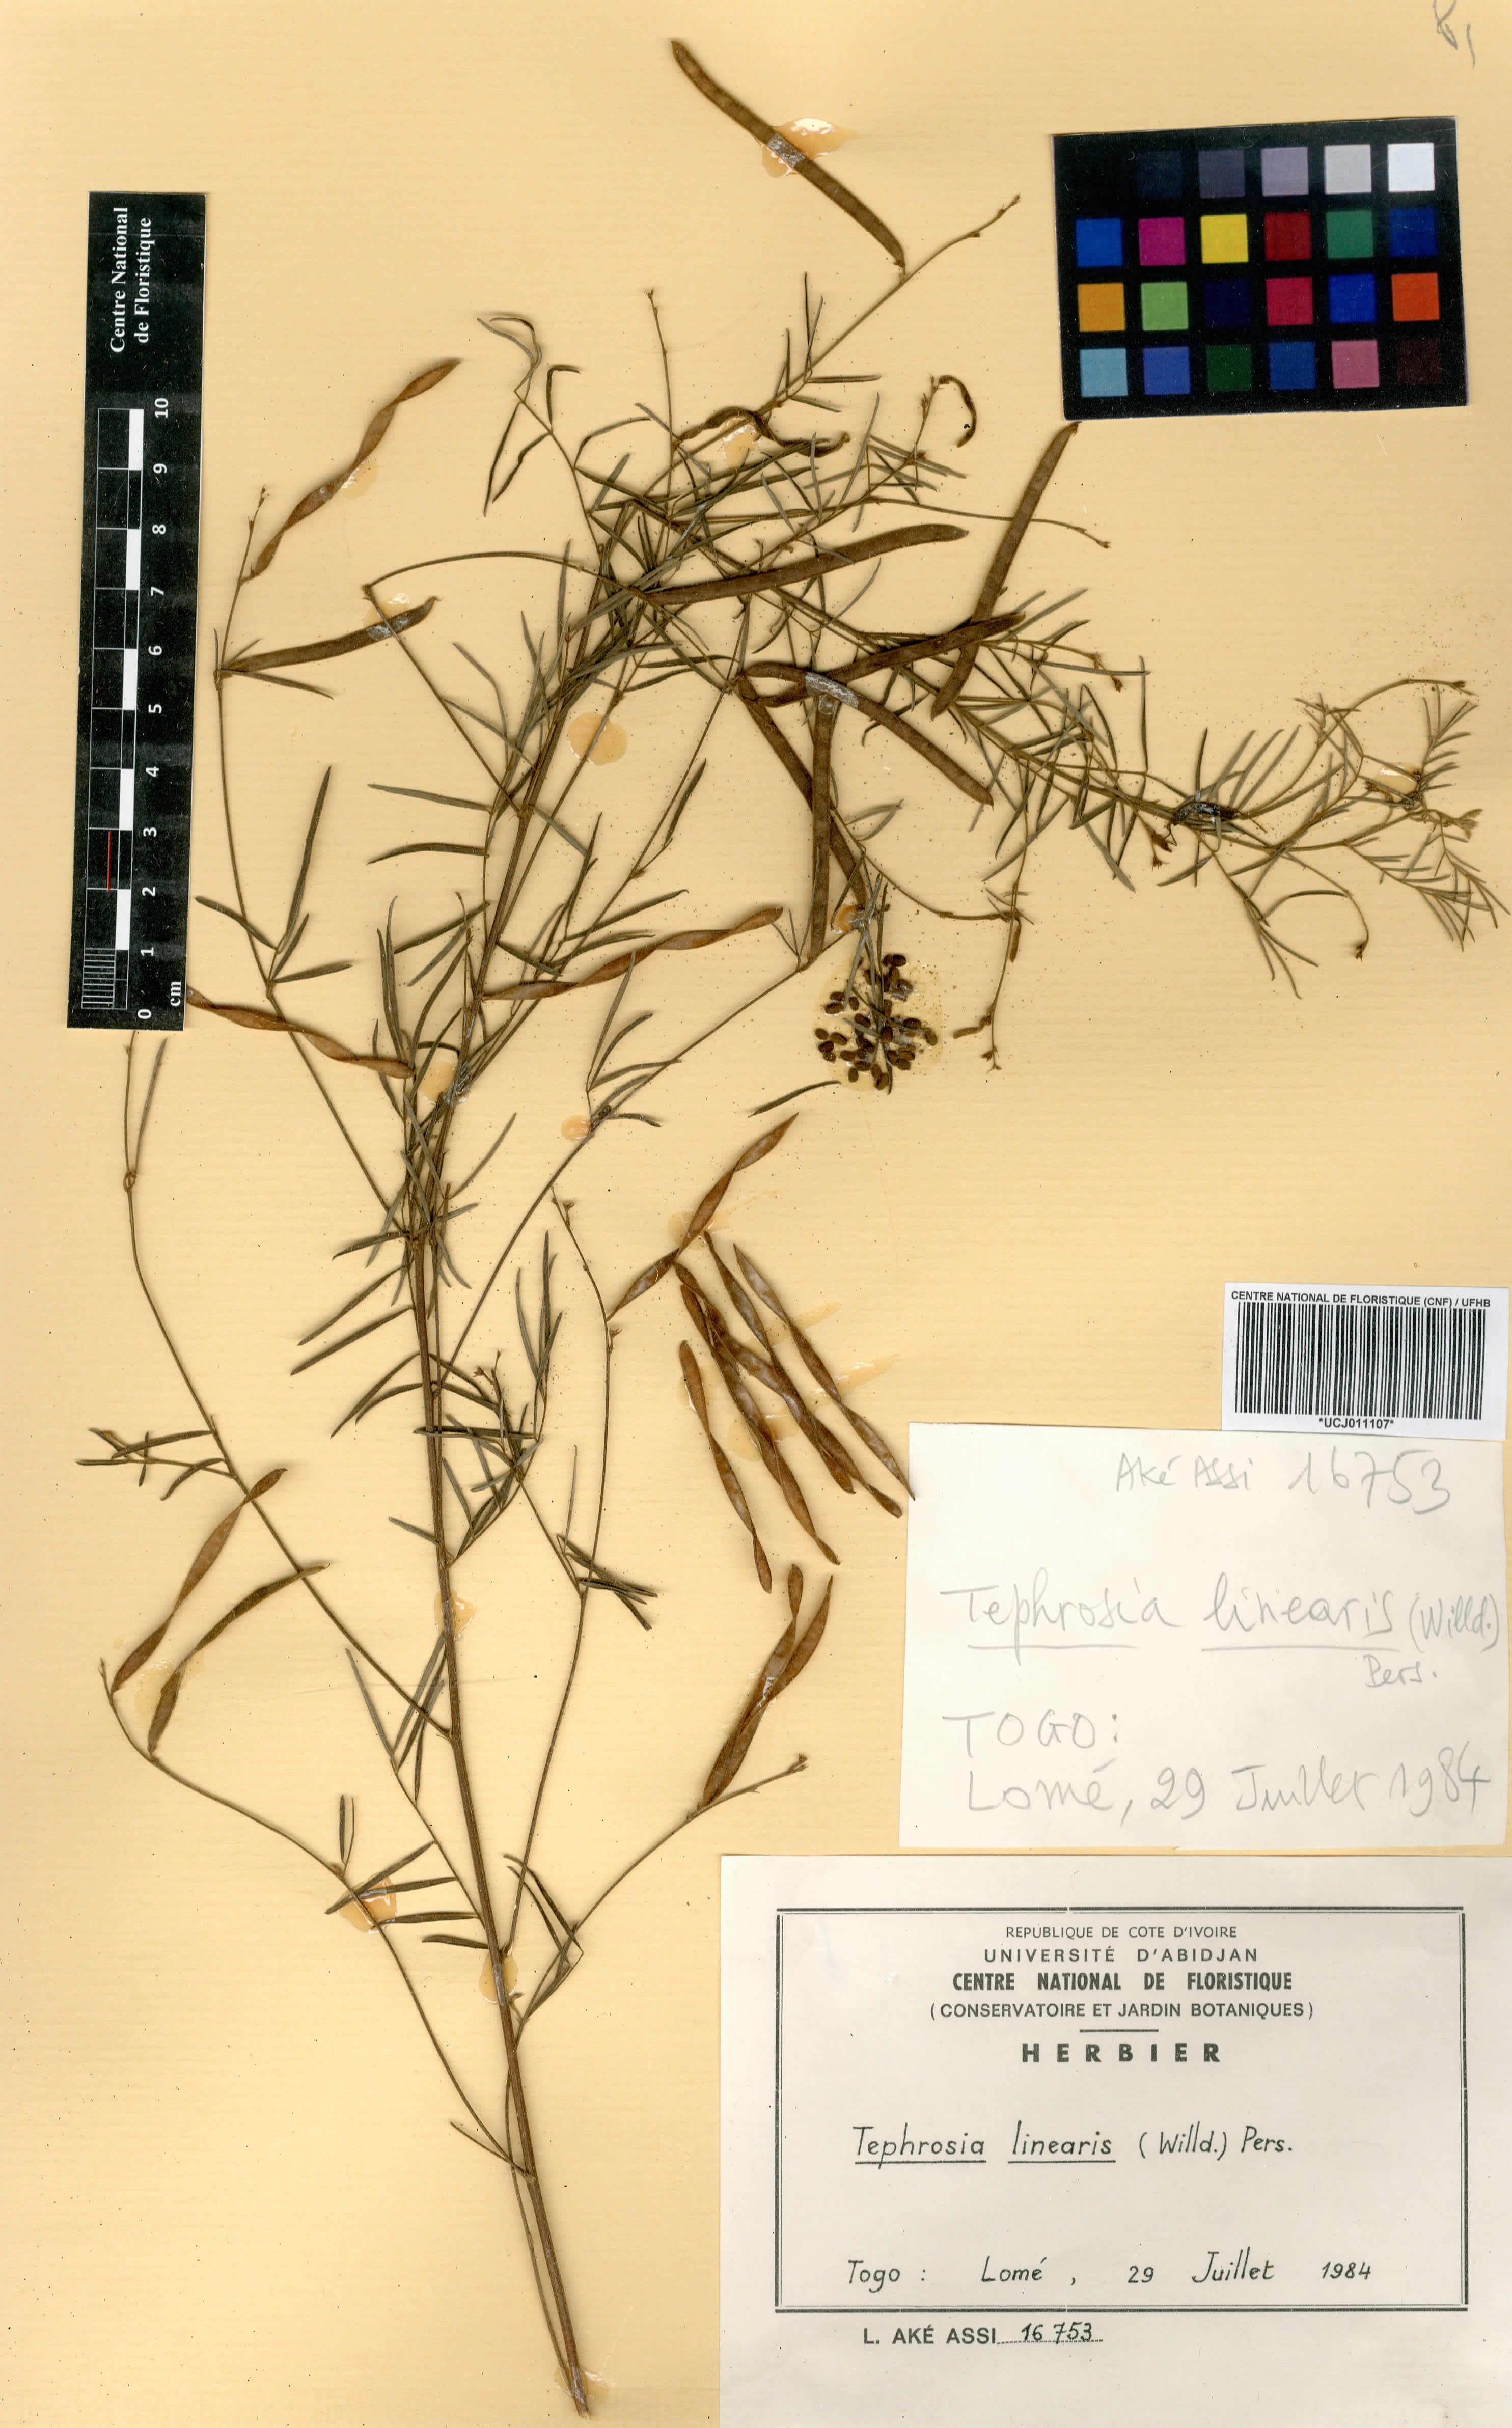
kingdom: Plantae
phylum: Tracheophyta
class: Magnoliopsida
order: Fabales
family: Fabaceae
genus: Tephrosia
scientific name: Tephrosia linearis
